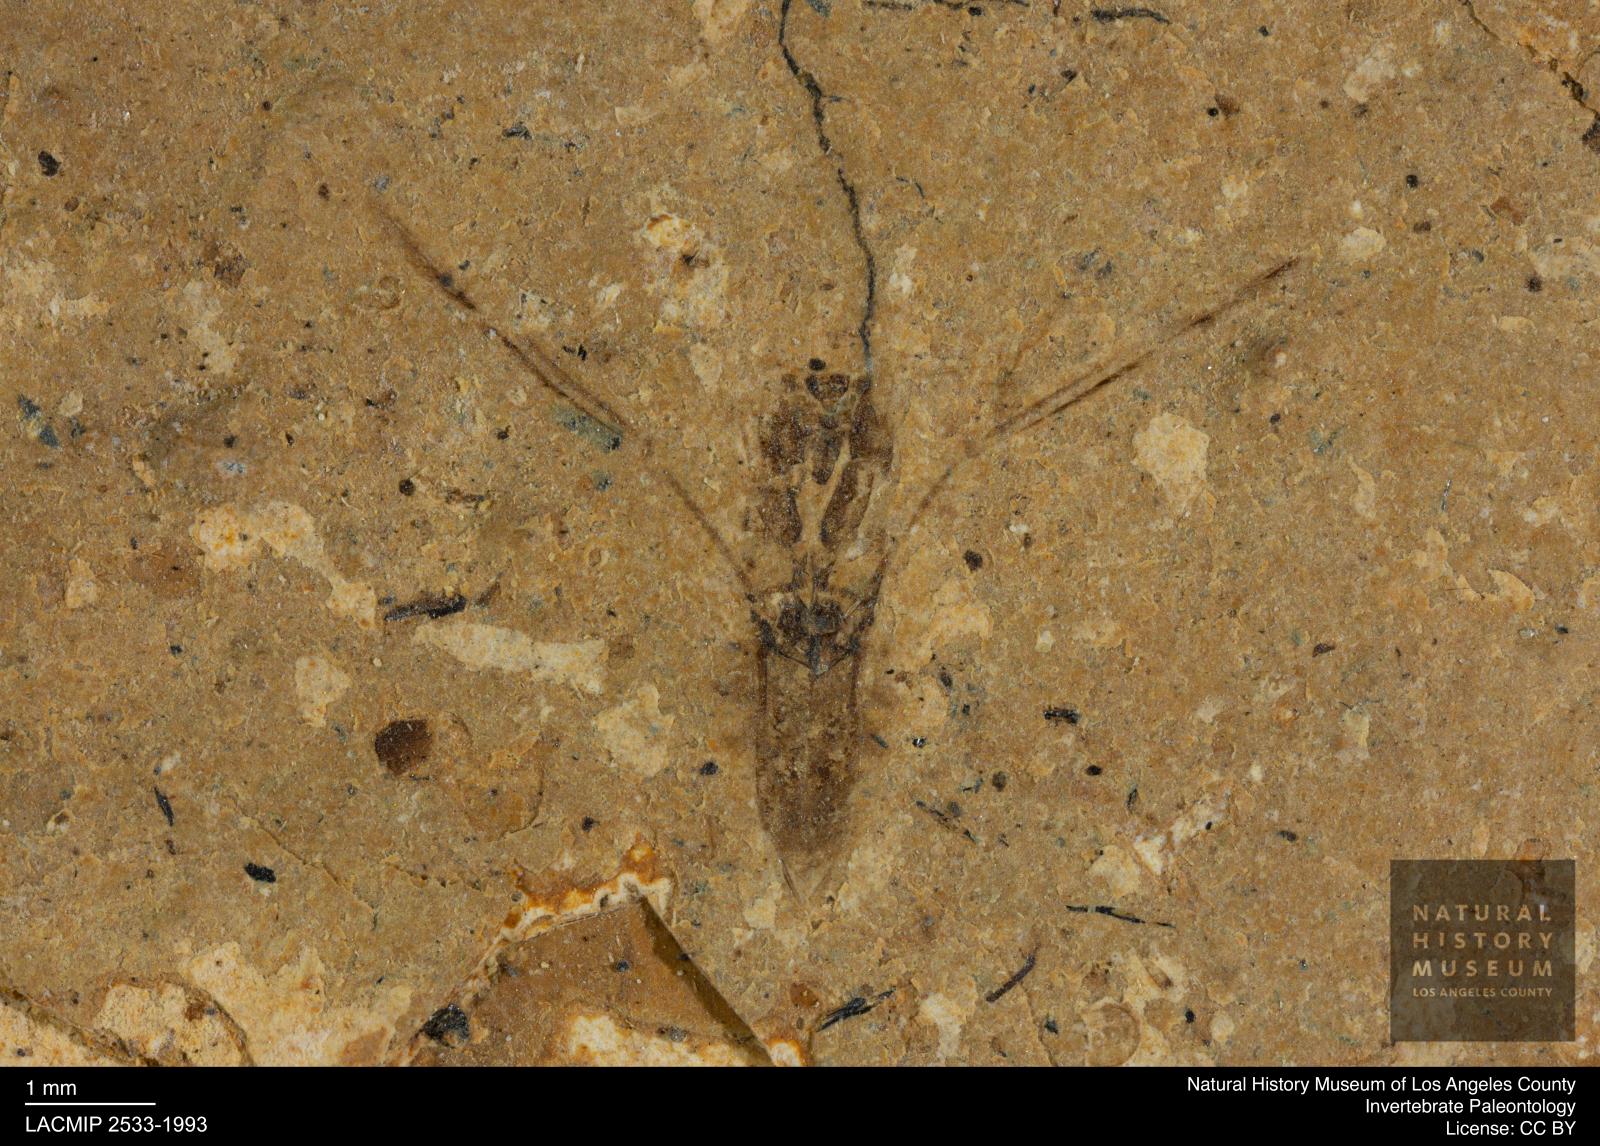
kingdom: Animalia
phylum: Arthropoda
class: Insecta
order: Hemiptera
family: Notonectidae
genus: Notonecta
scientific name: Notonecta
